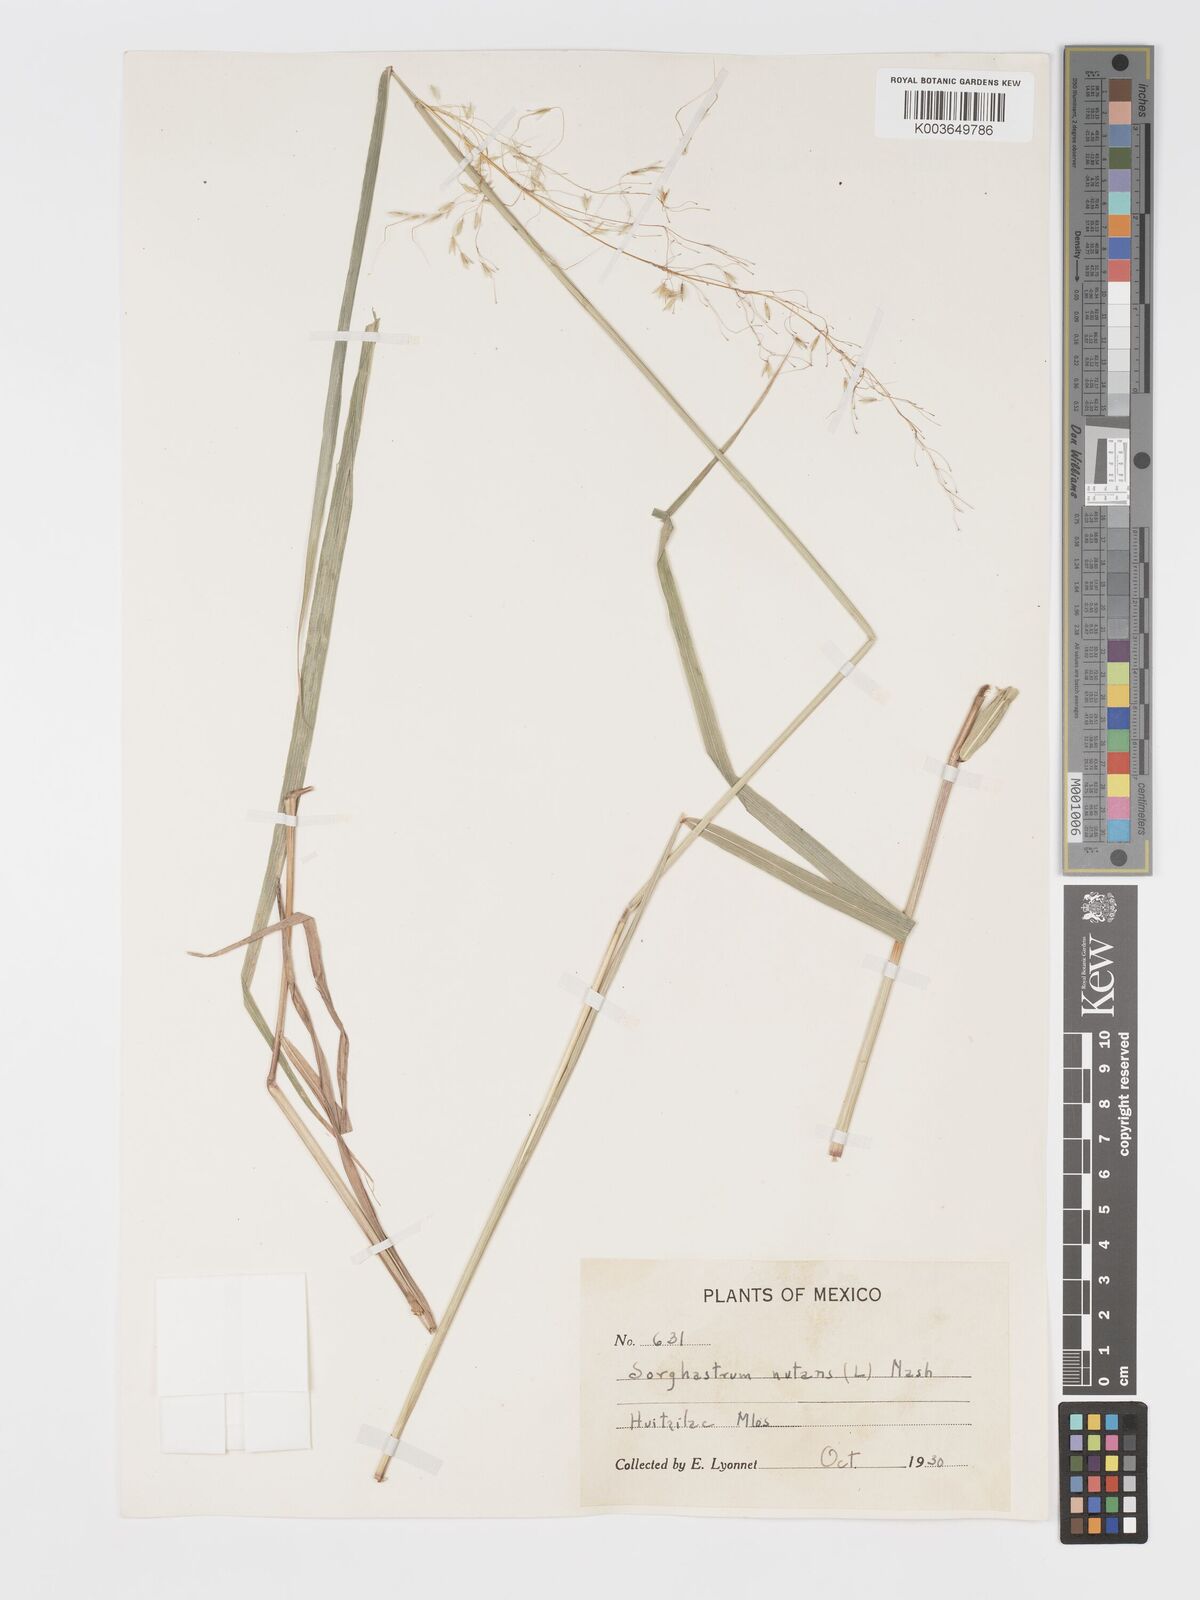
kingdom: Plantae
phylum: Tracheophyta
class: Liliopsida
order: Poales
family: Poaceae
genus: Sorghastrum
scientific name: Sorghastrum nutans
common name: Indian grass
